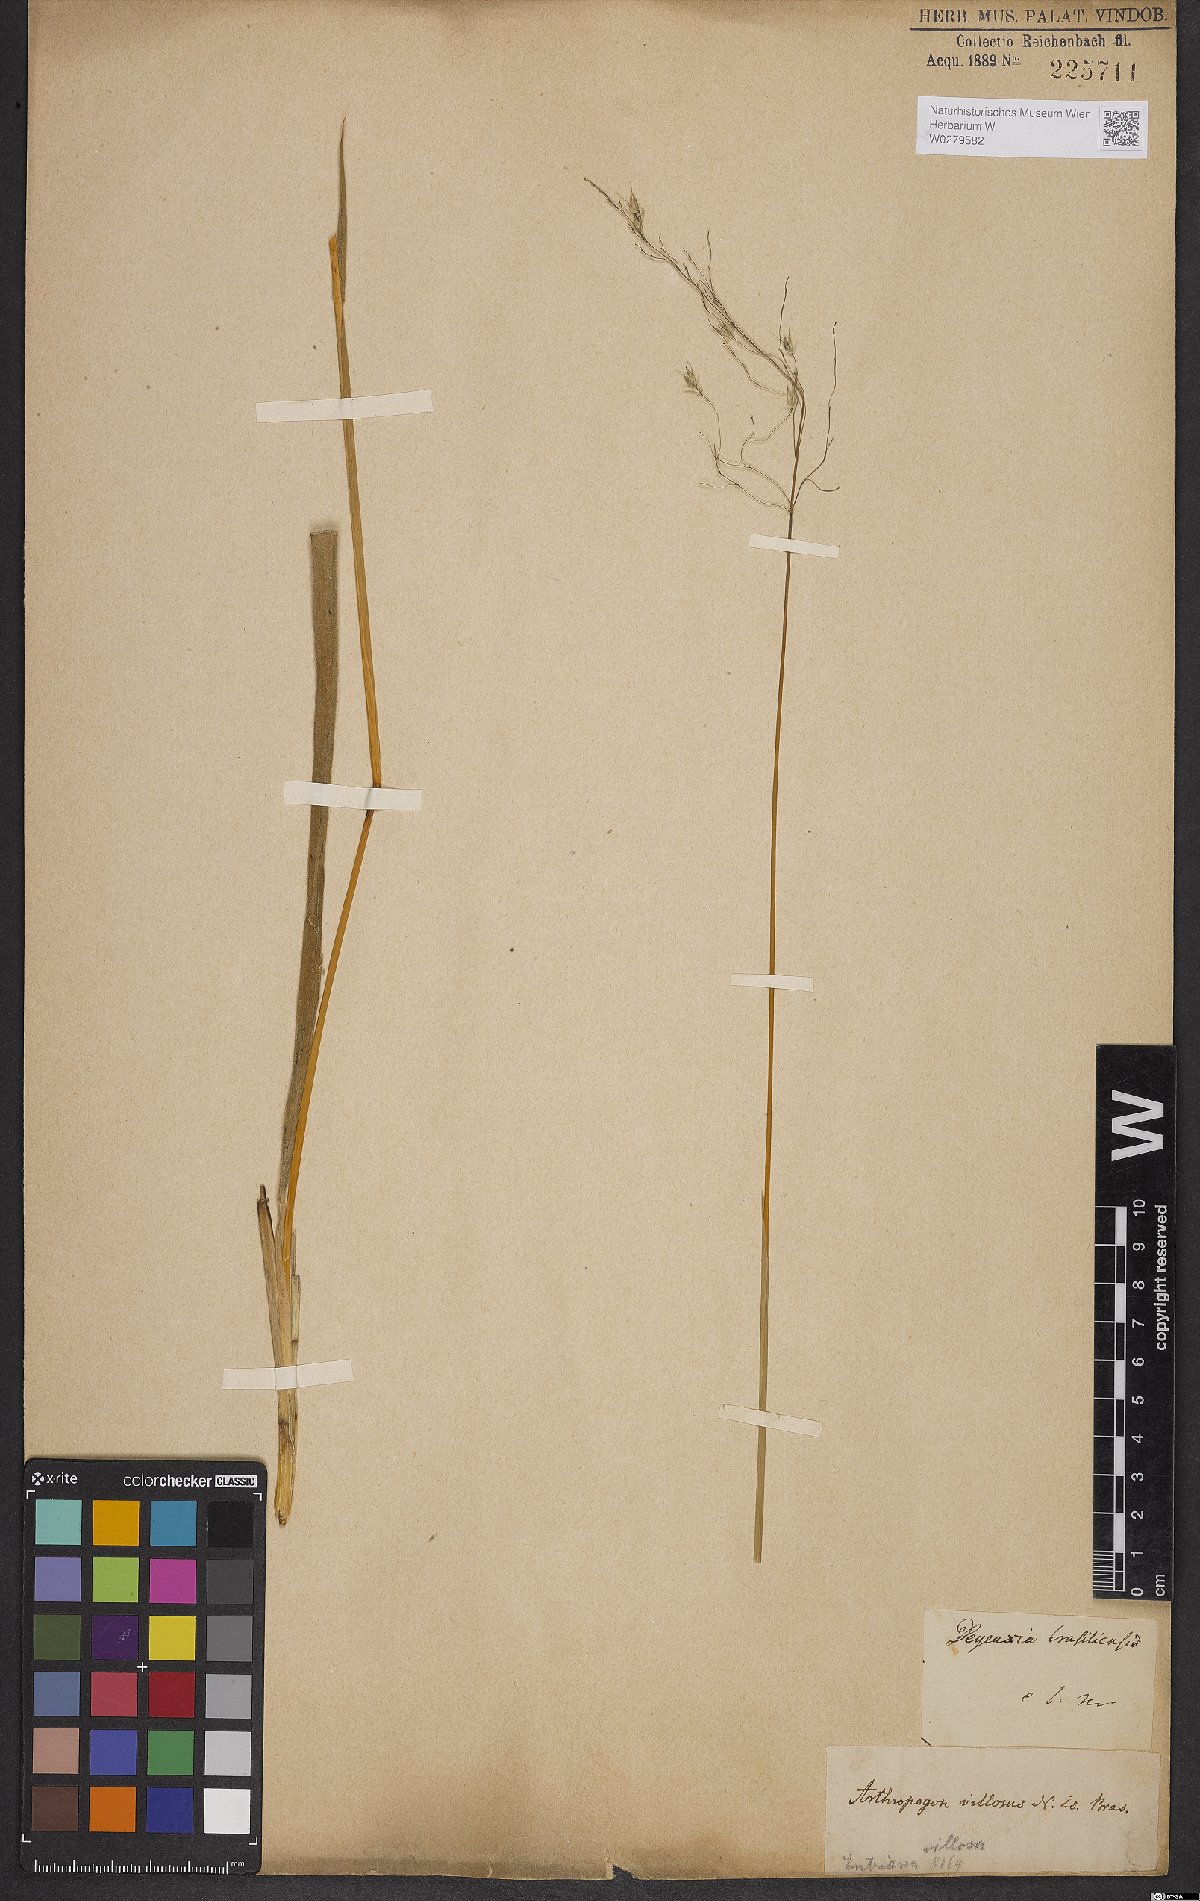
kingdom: Plantae
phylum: Tracheophyta
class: Liliopsida
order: Poales
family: Poaceae
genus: Arthropogon
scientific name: Arthropogon villosus
